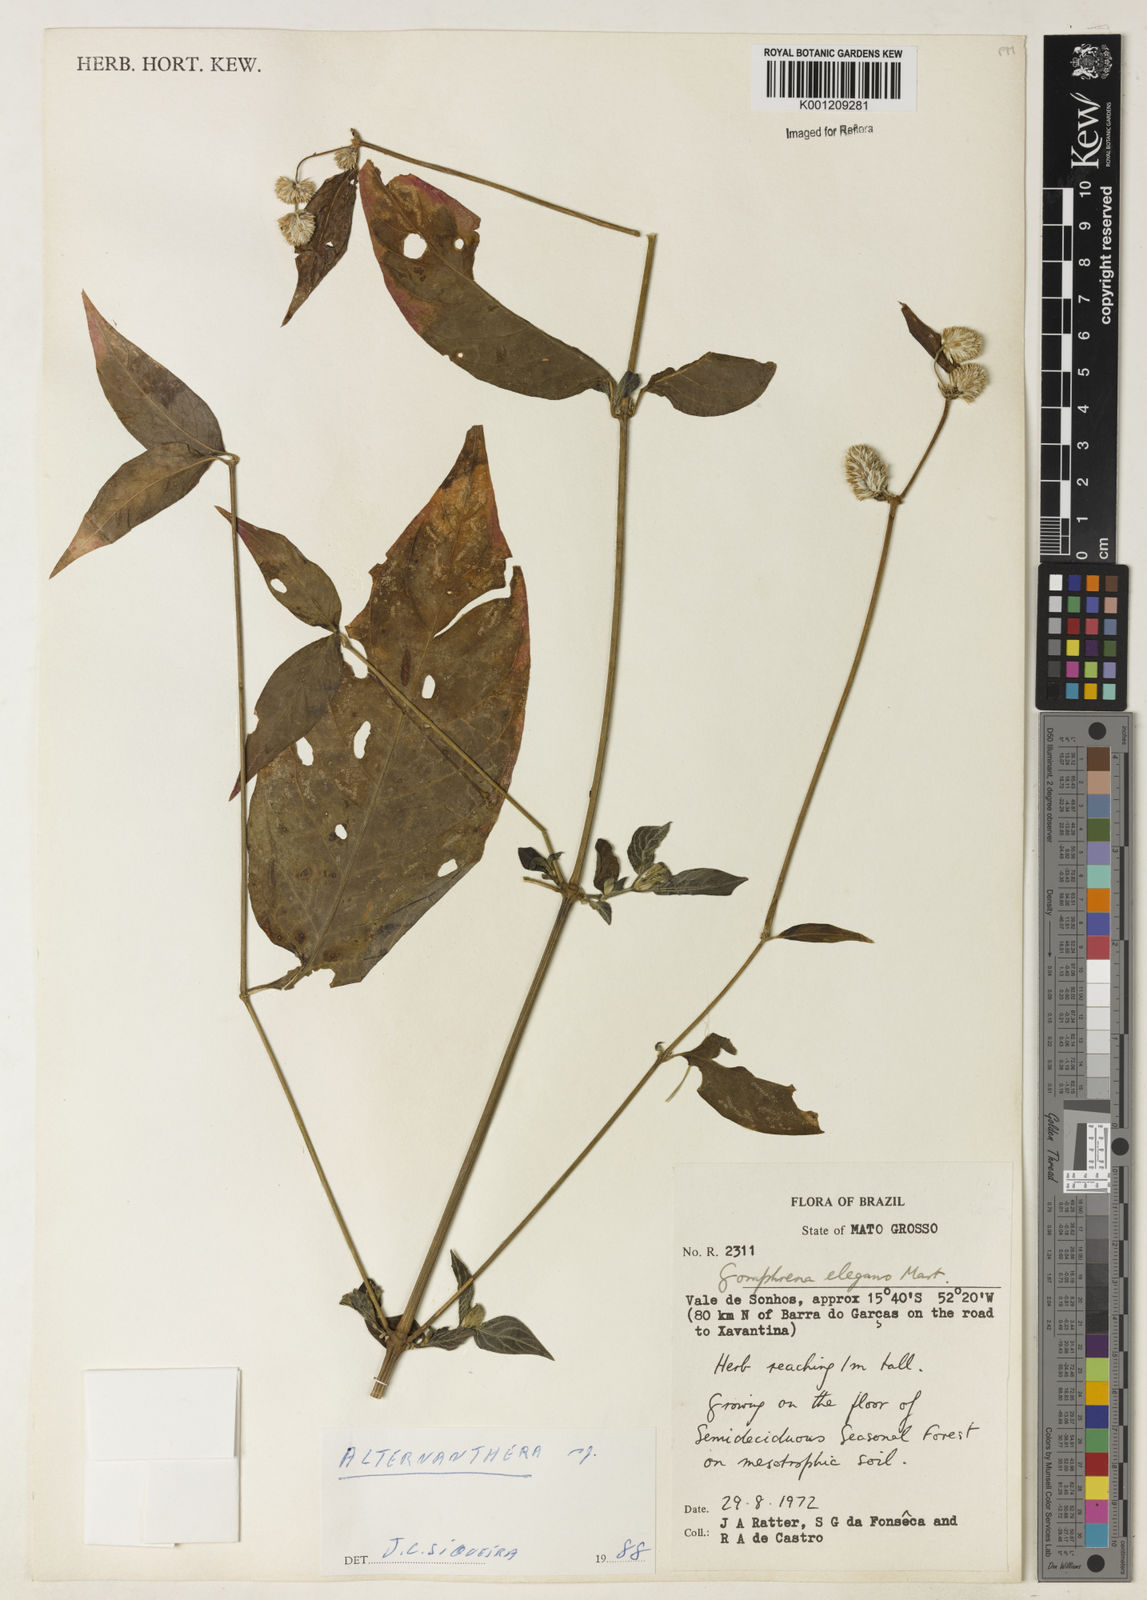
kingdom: Plantae
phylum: Tracheophyta
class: Magnoliopsida
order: Caryophyllales
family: Amaranthaceae
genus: Gomphrena
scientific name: Gomphrena elegans
